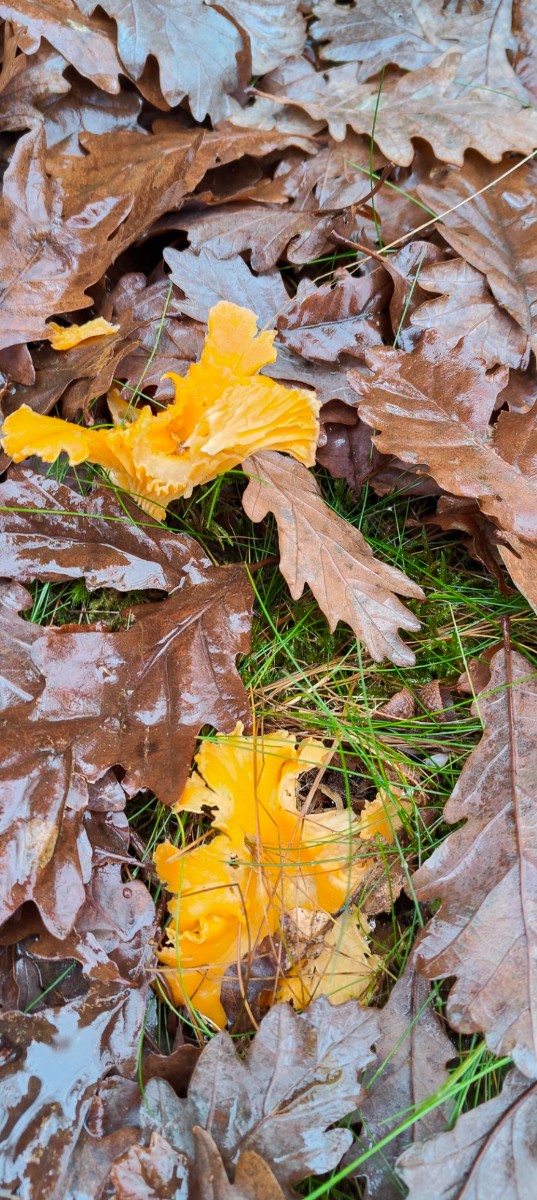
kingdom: Fungi
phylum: Basidiomycota
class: Agaricomycetes
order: Cantharellales
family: Hydnaceae
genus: Cantharellus
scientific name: Cantharellus cibarius
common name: almindelig kantarel
